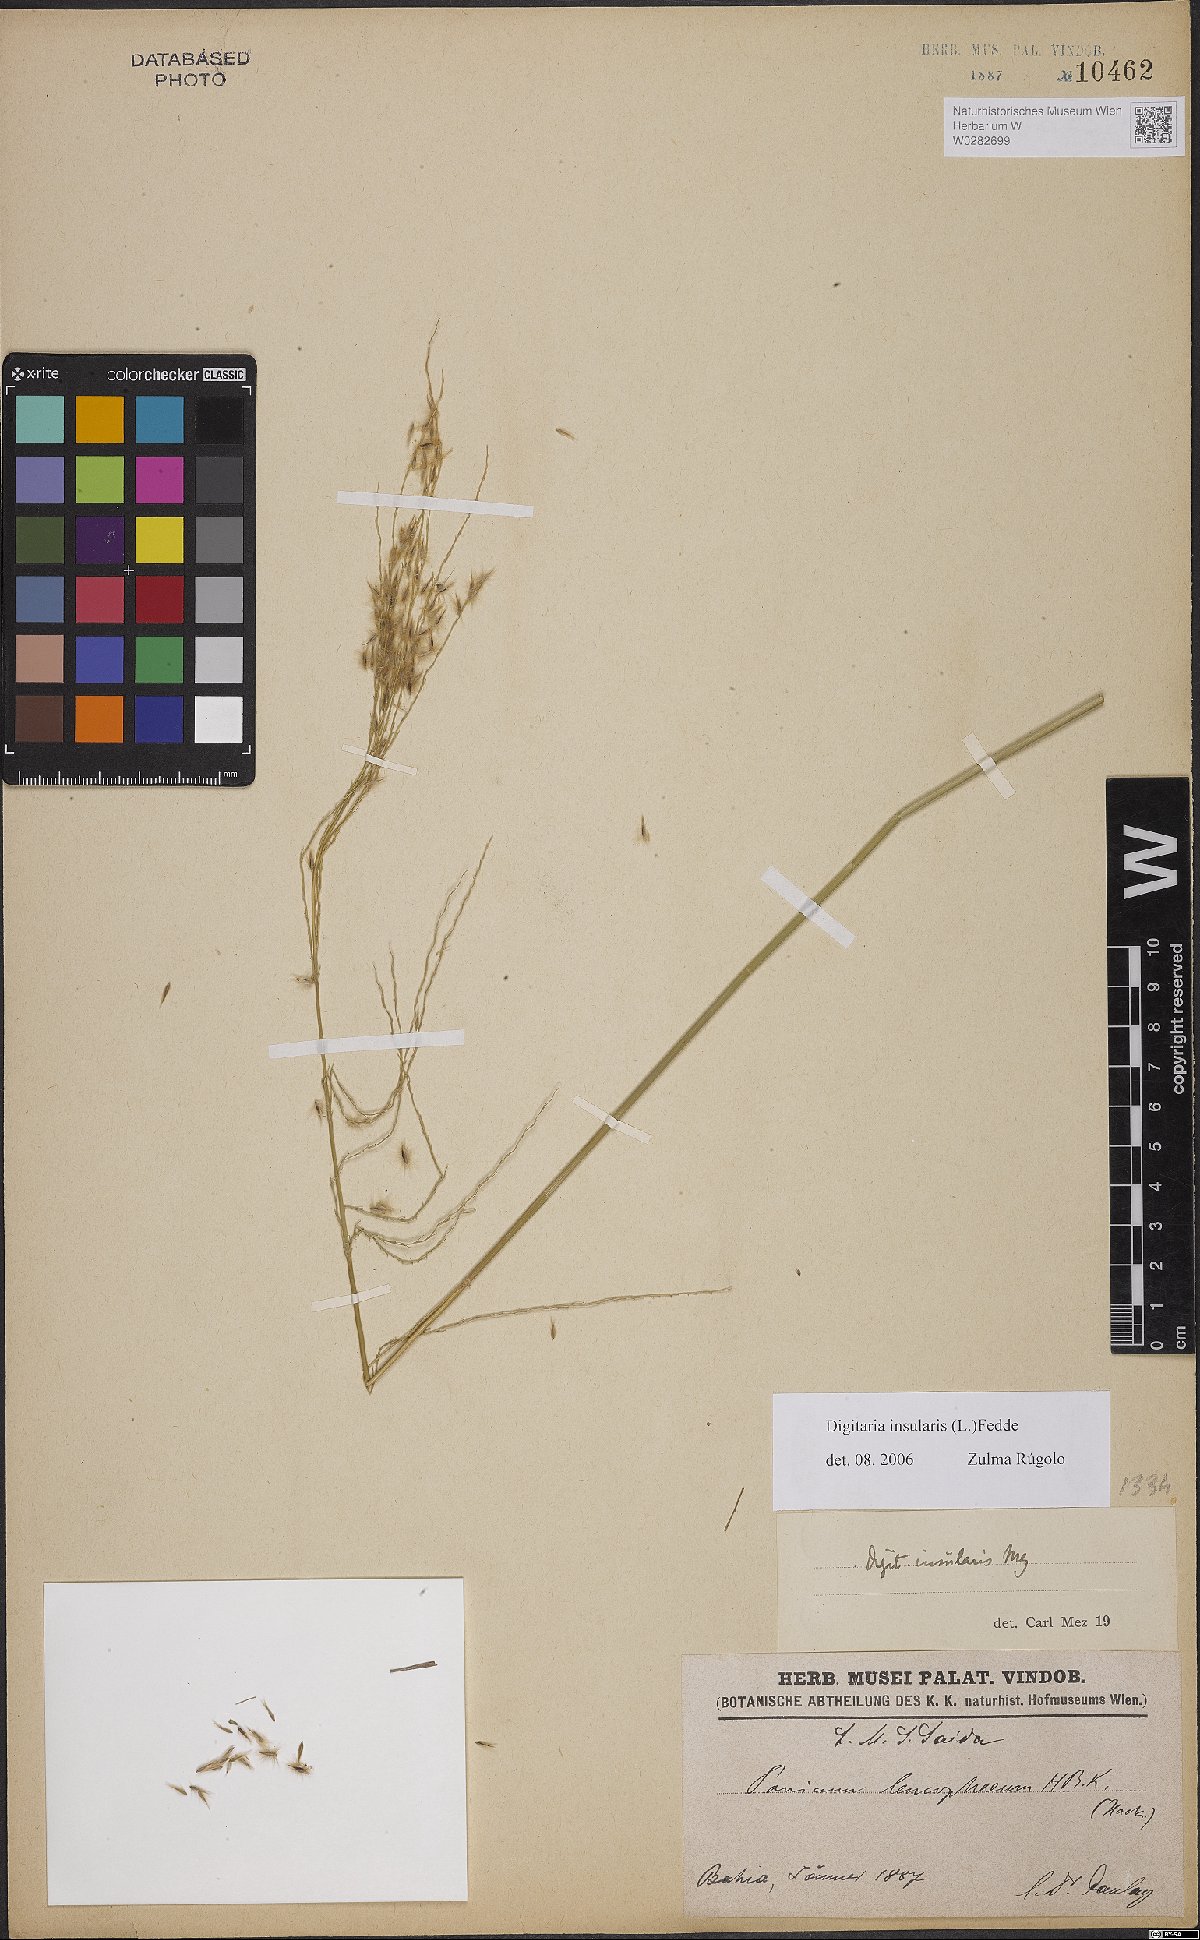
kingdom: Plantae
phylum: Tracheophyta
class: Liliopsida
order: Poales
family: Poaceae
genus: Digitaria
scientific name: Digitaria insularis
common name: Sourgrass
